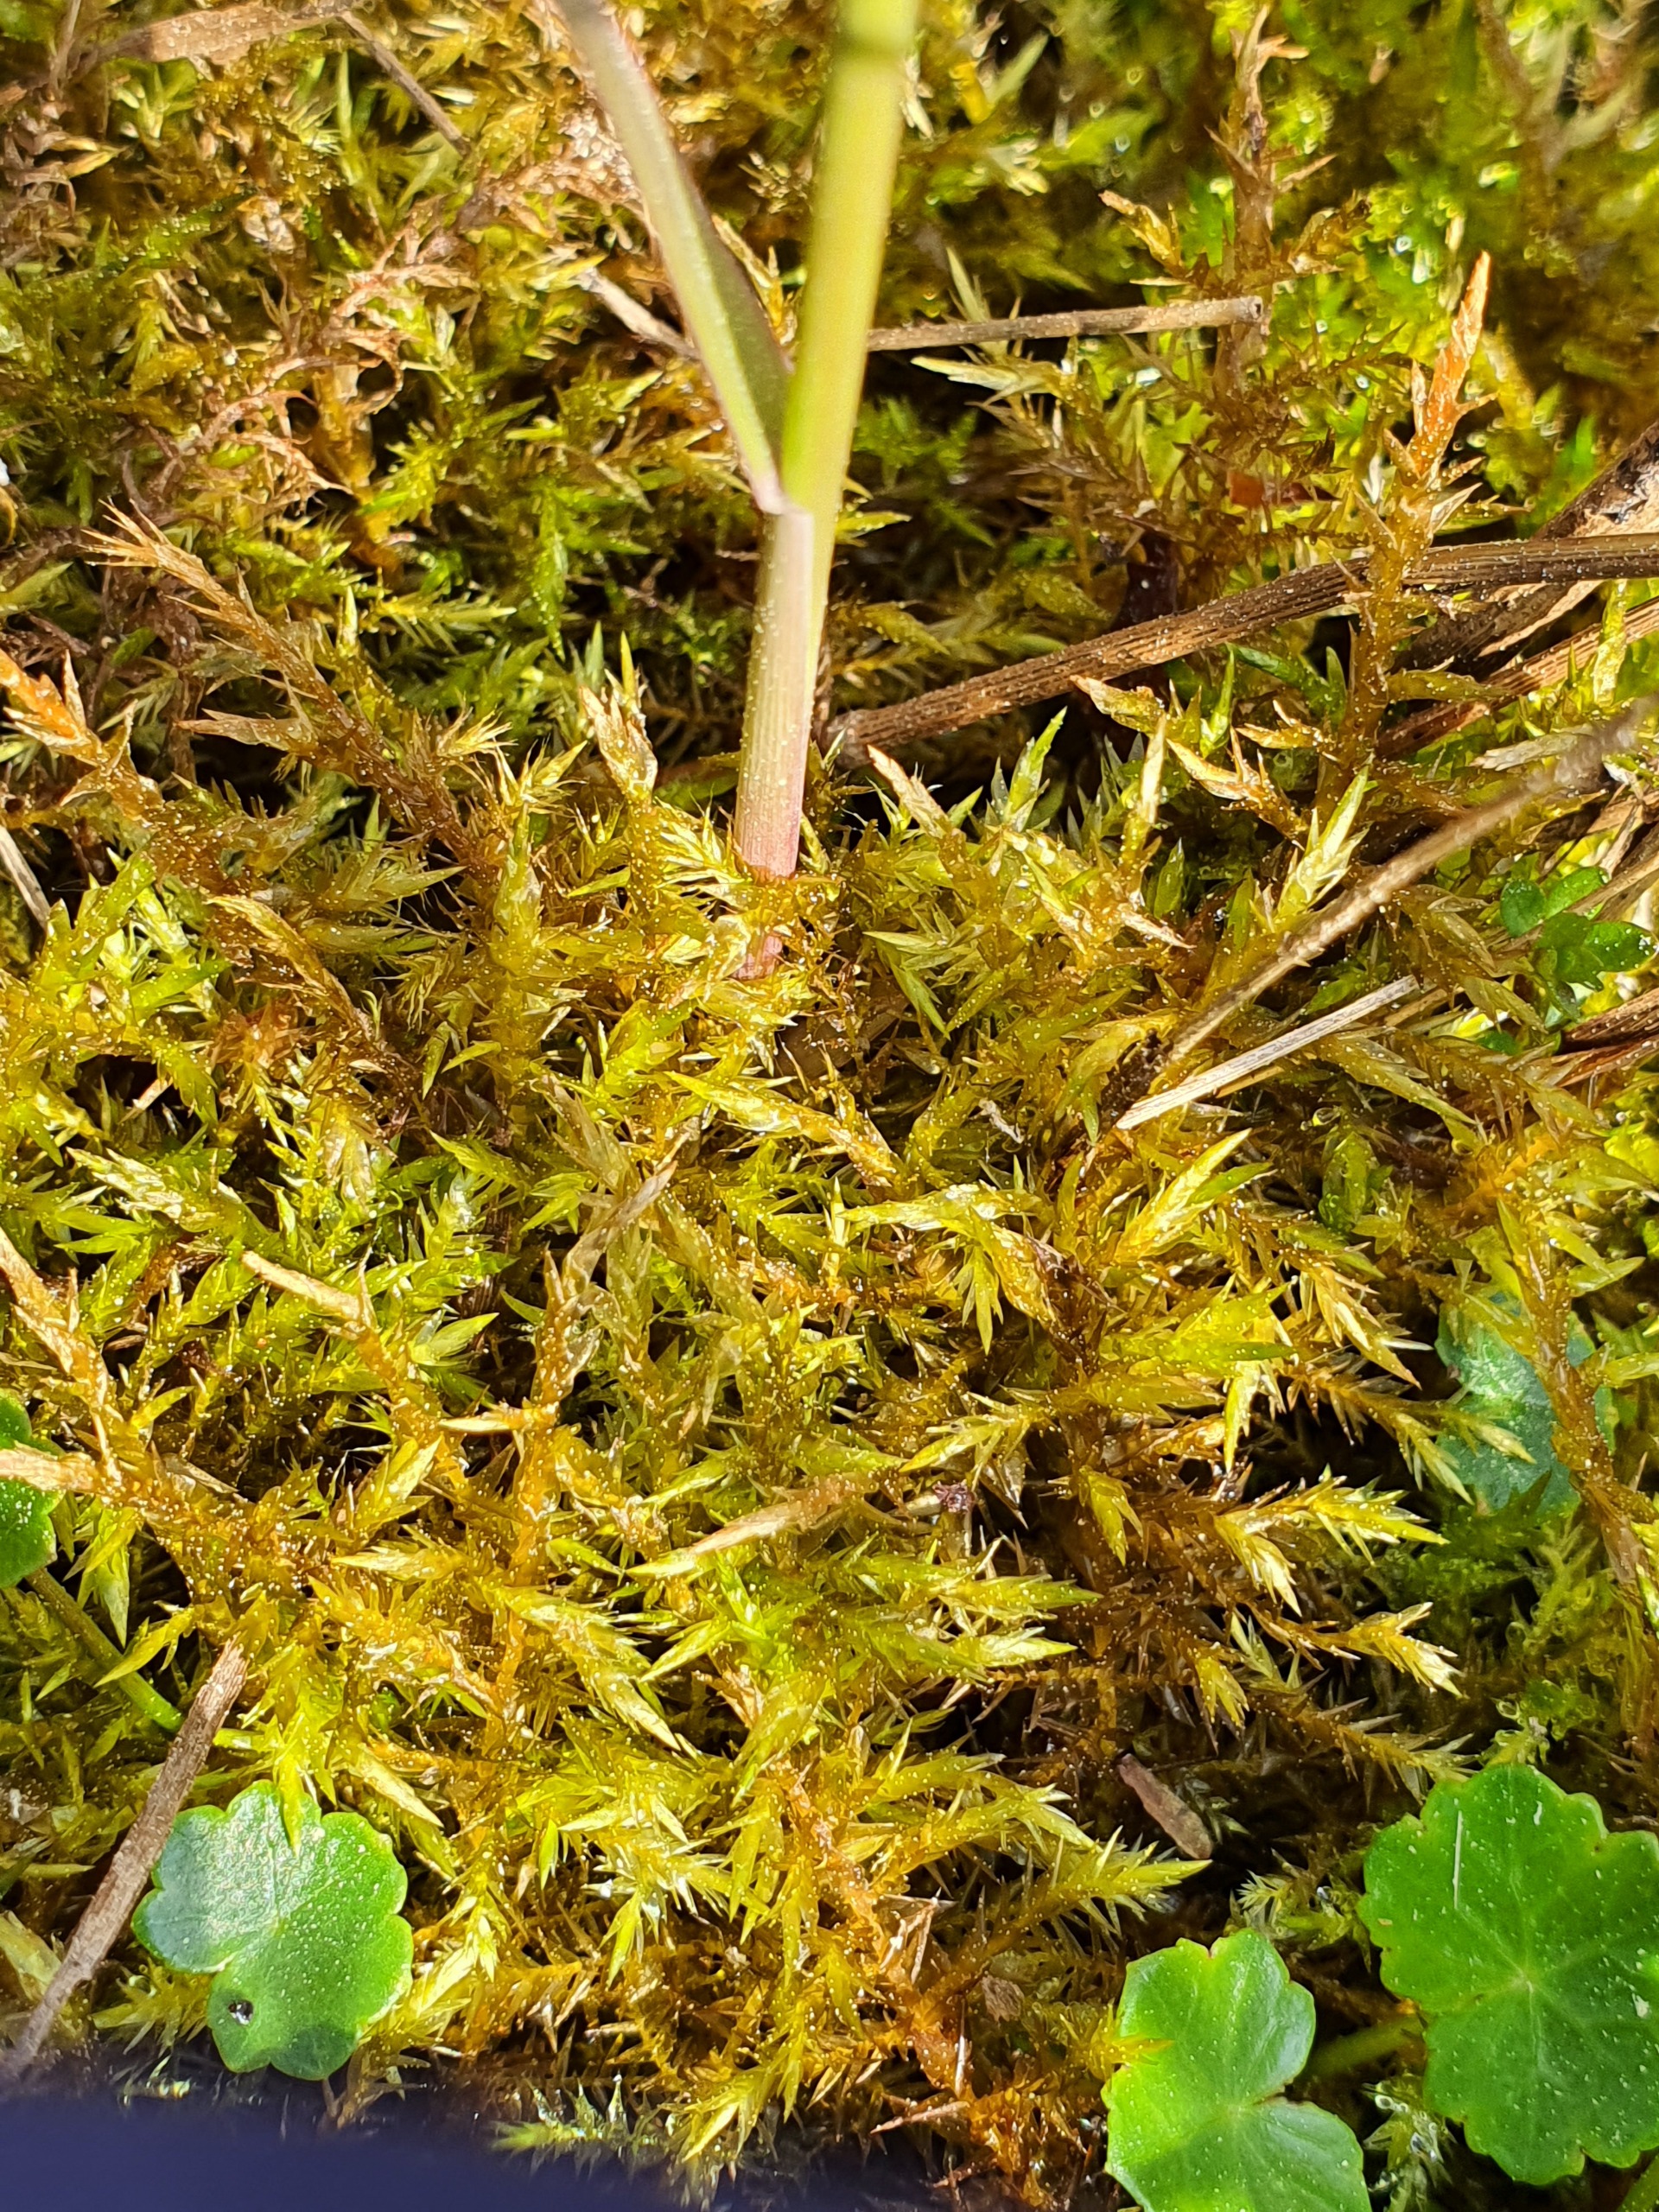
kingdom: Plantae
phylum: Bryophyta
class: Bryopsida
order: Hypnales
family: Pylaisiaceae
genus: Calliergonella
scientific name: Calliergonella cuspidata
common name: Spids spydmos
